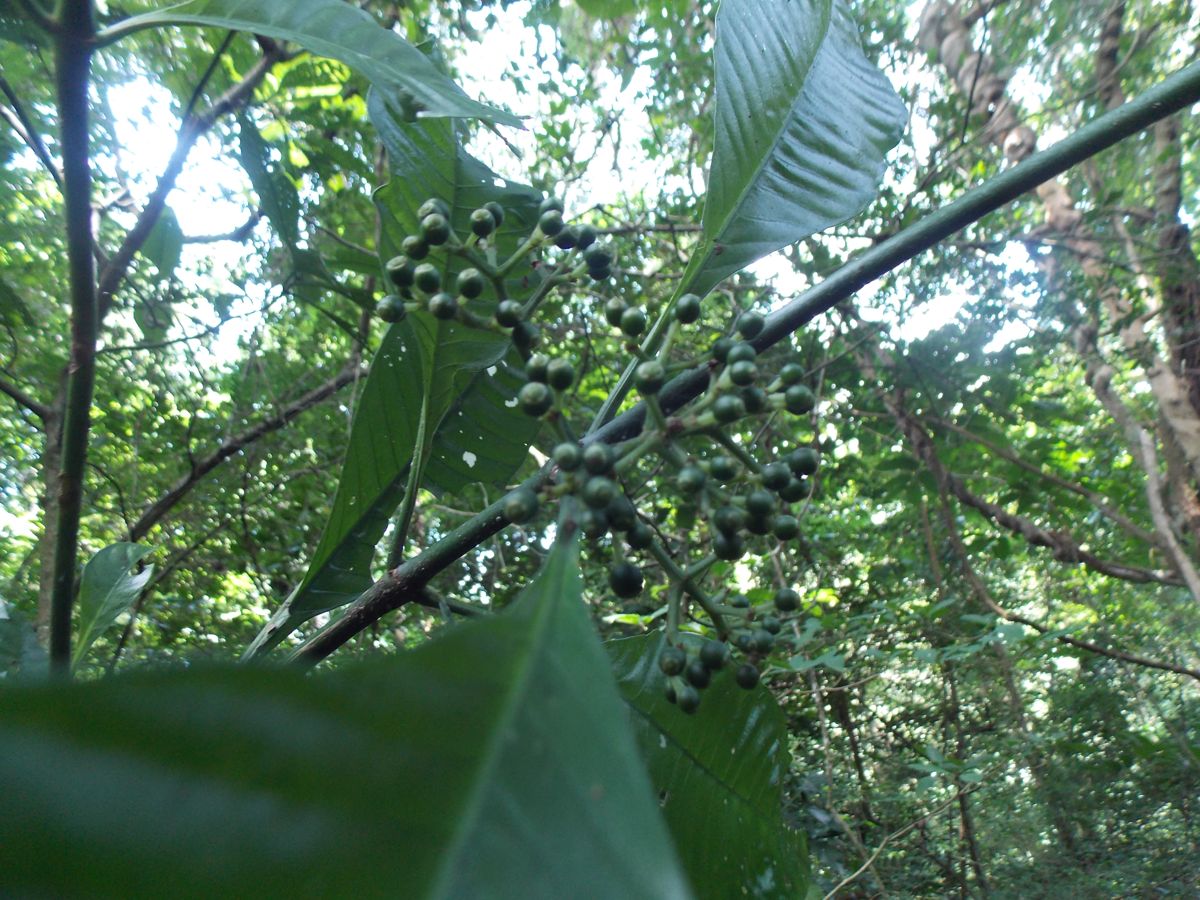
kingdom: Plantae
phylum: Tracheophyta
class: Magnoliopsida
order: Gentianales
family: Rubiaceae
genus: Psychotria
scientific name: Psychotria tenuifolia
